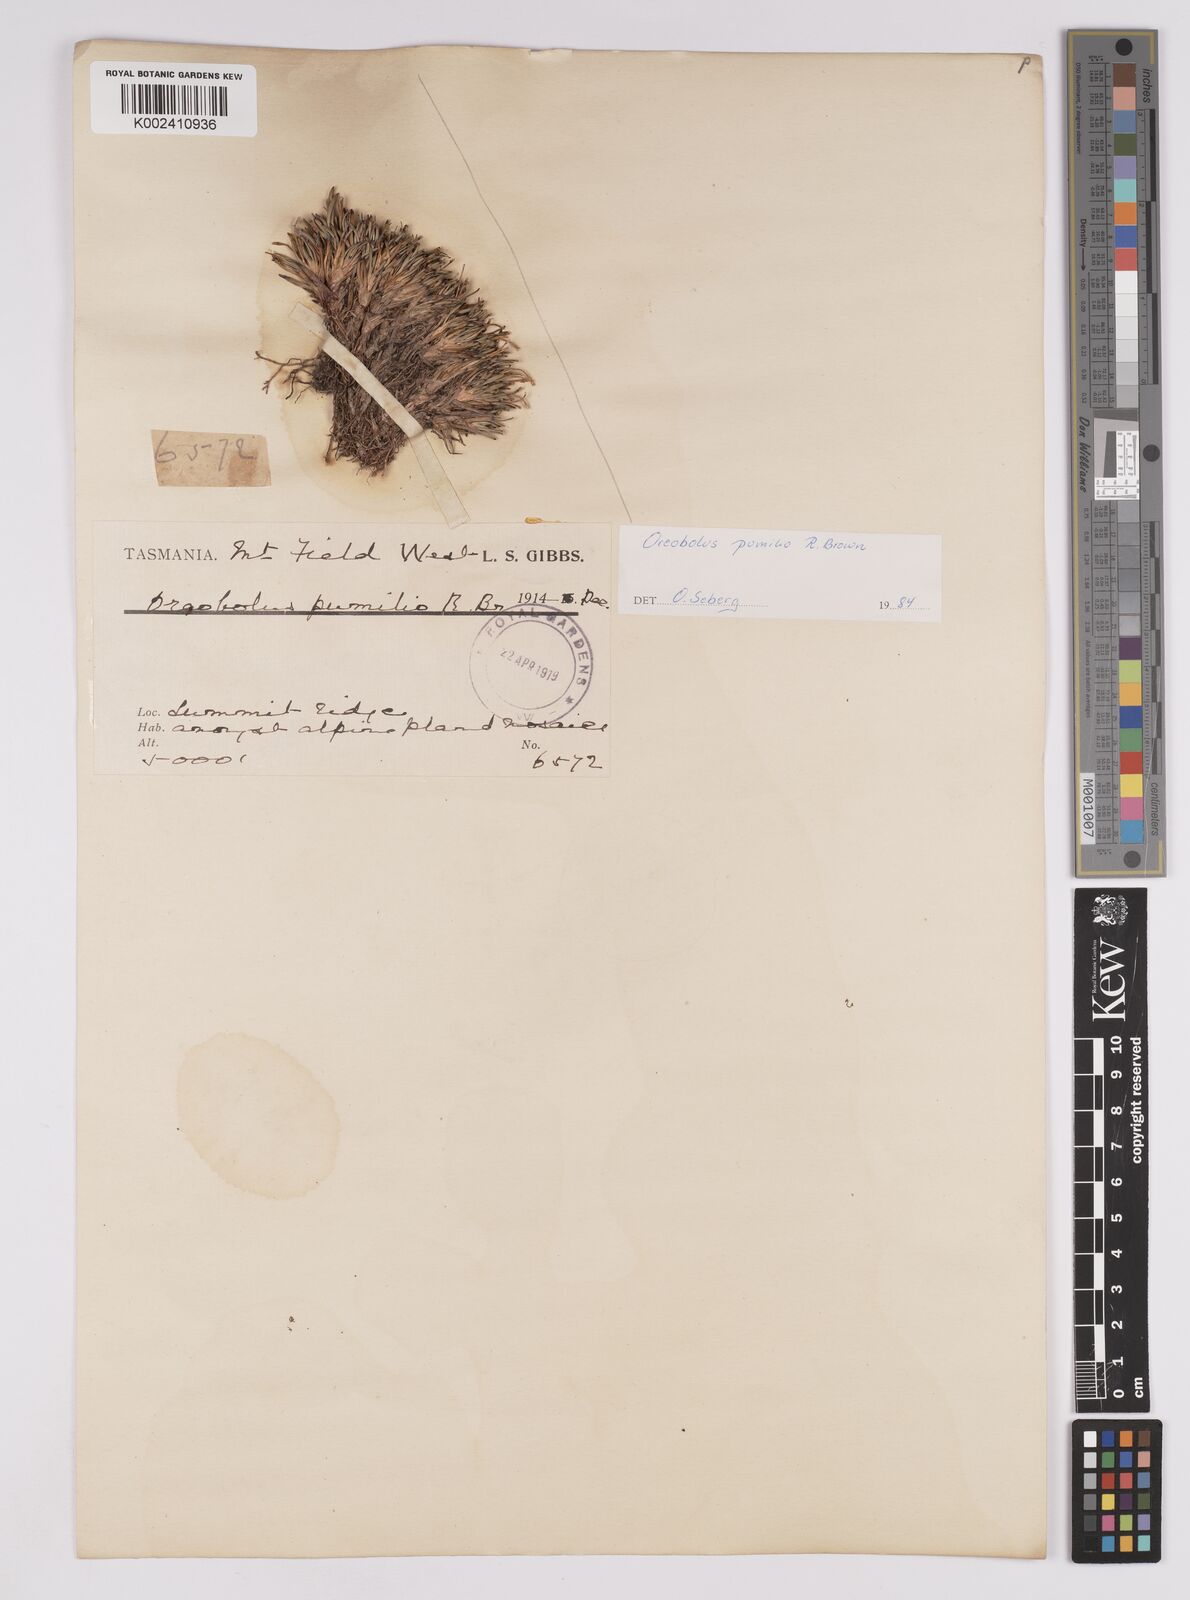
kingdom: Plantae
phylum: Tracheophyta
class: Liliopsida
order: Poales
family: Cyperaceae
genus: Oreobolus
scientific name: Oreobolus pumilio
